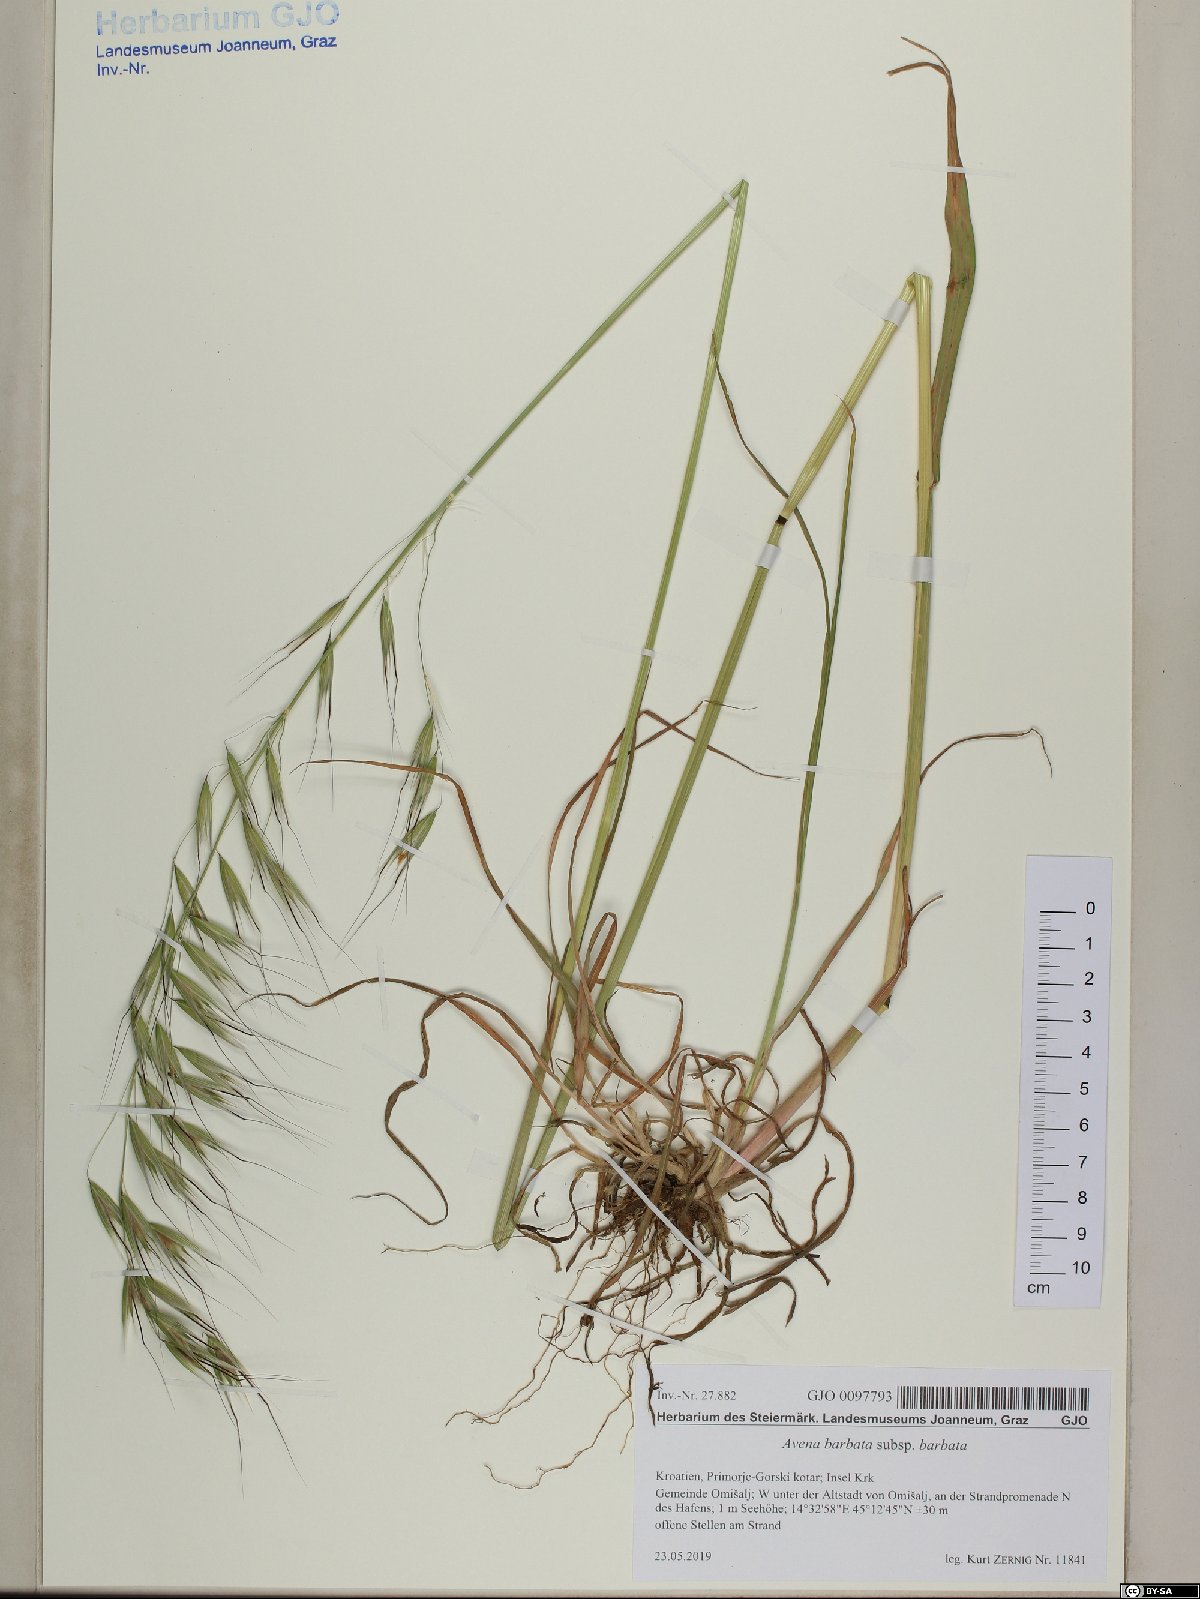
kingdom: Plantae
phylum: Tracheophyta
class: Liliopsida
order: Poales
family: Poaceae
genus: Avena
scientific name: Avena barbata
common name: Slender oat
